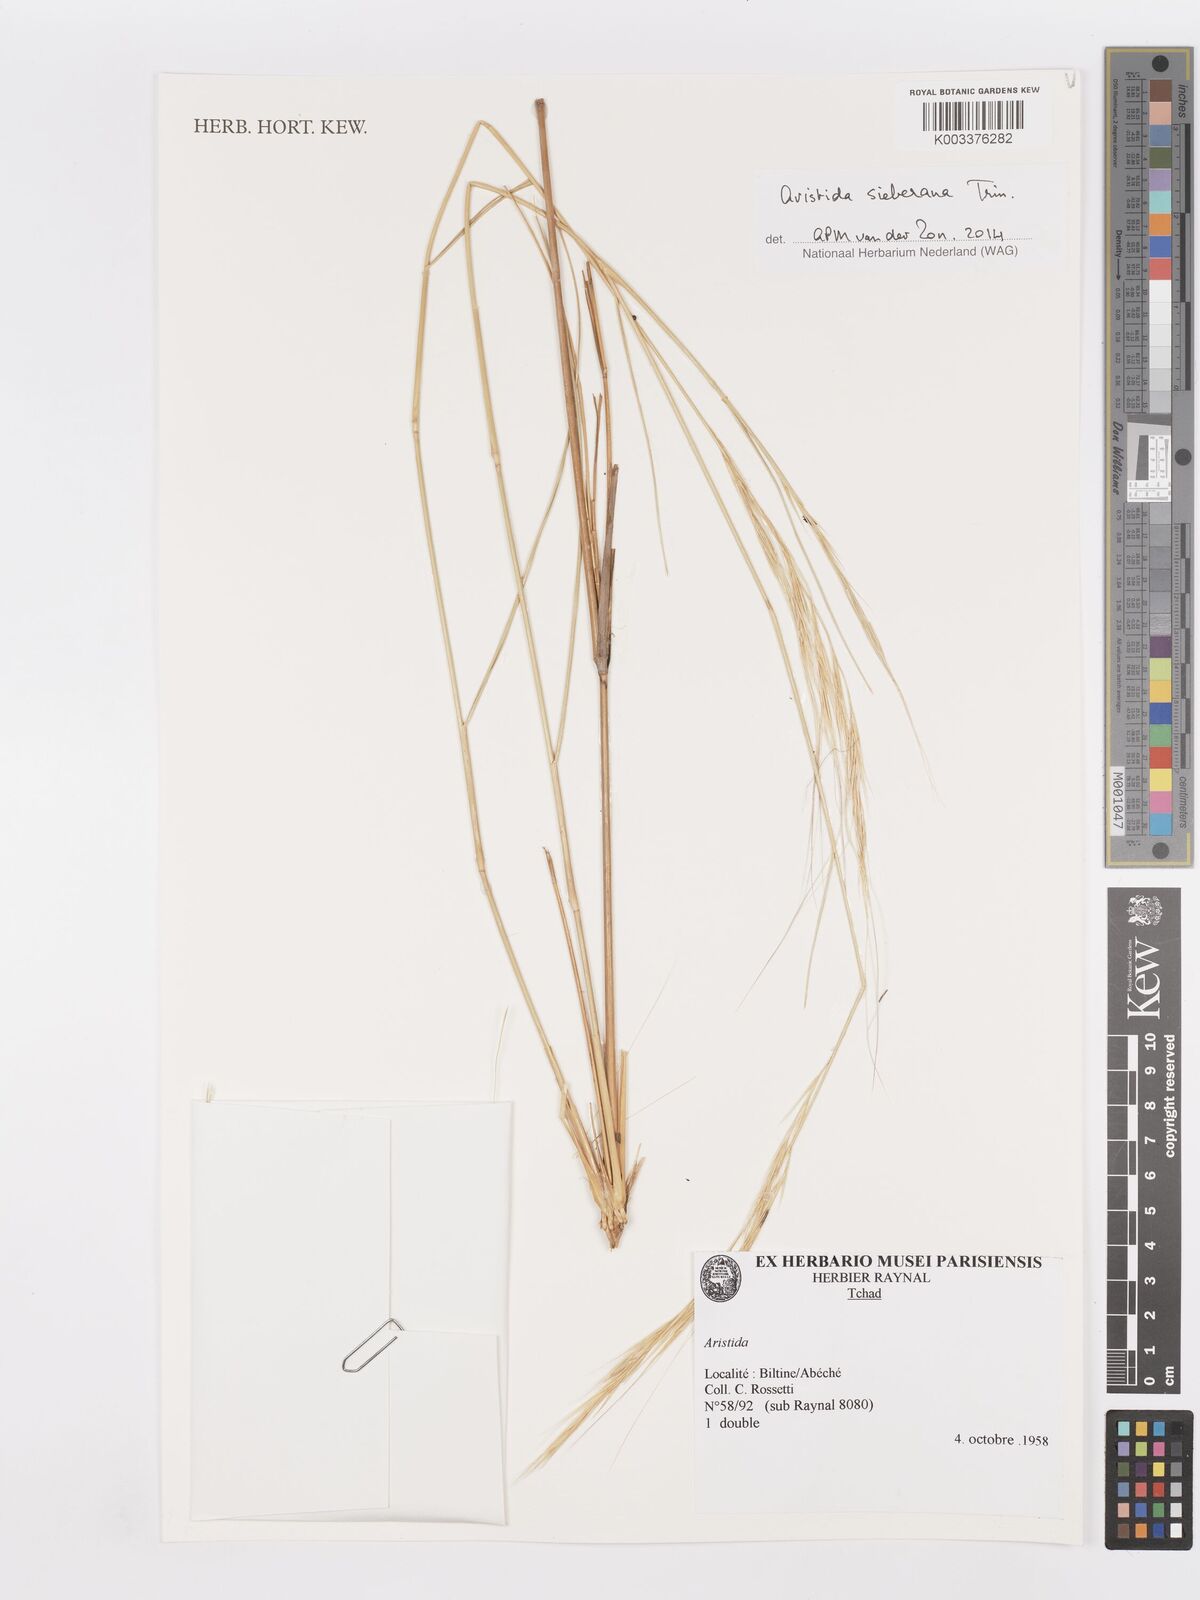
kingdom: Plantae
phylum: Tracheophyta
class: Liliopsida
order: Poales
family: Poaceae
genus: Aristida
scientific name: Aristida sieberiana
